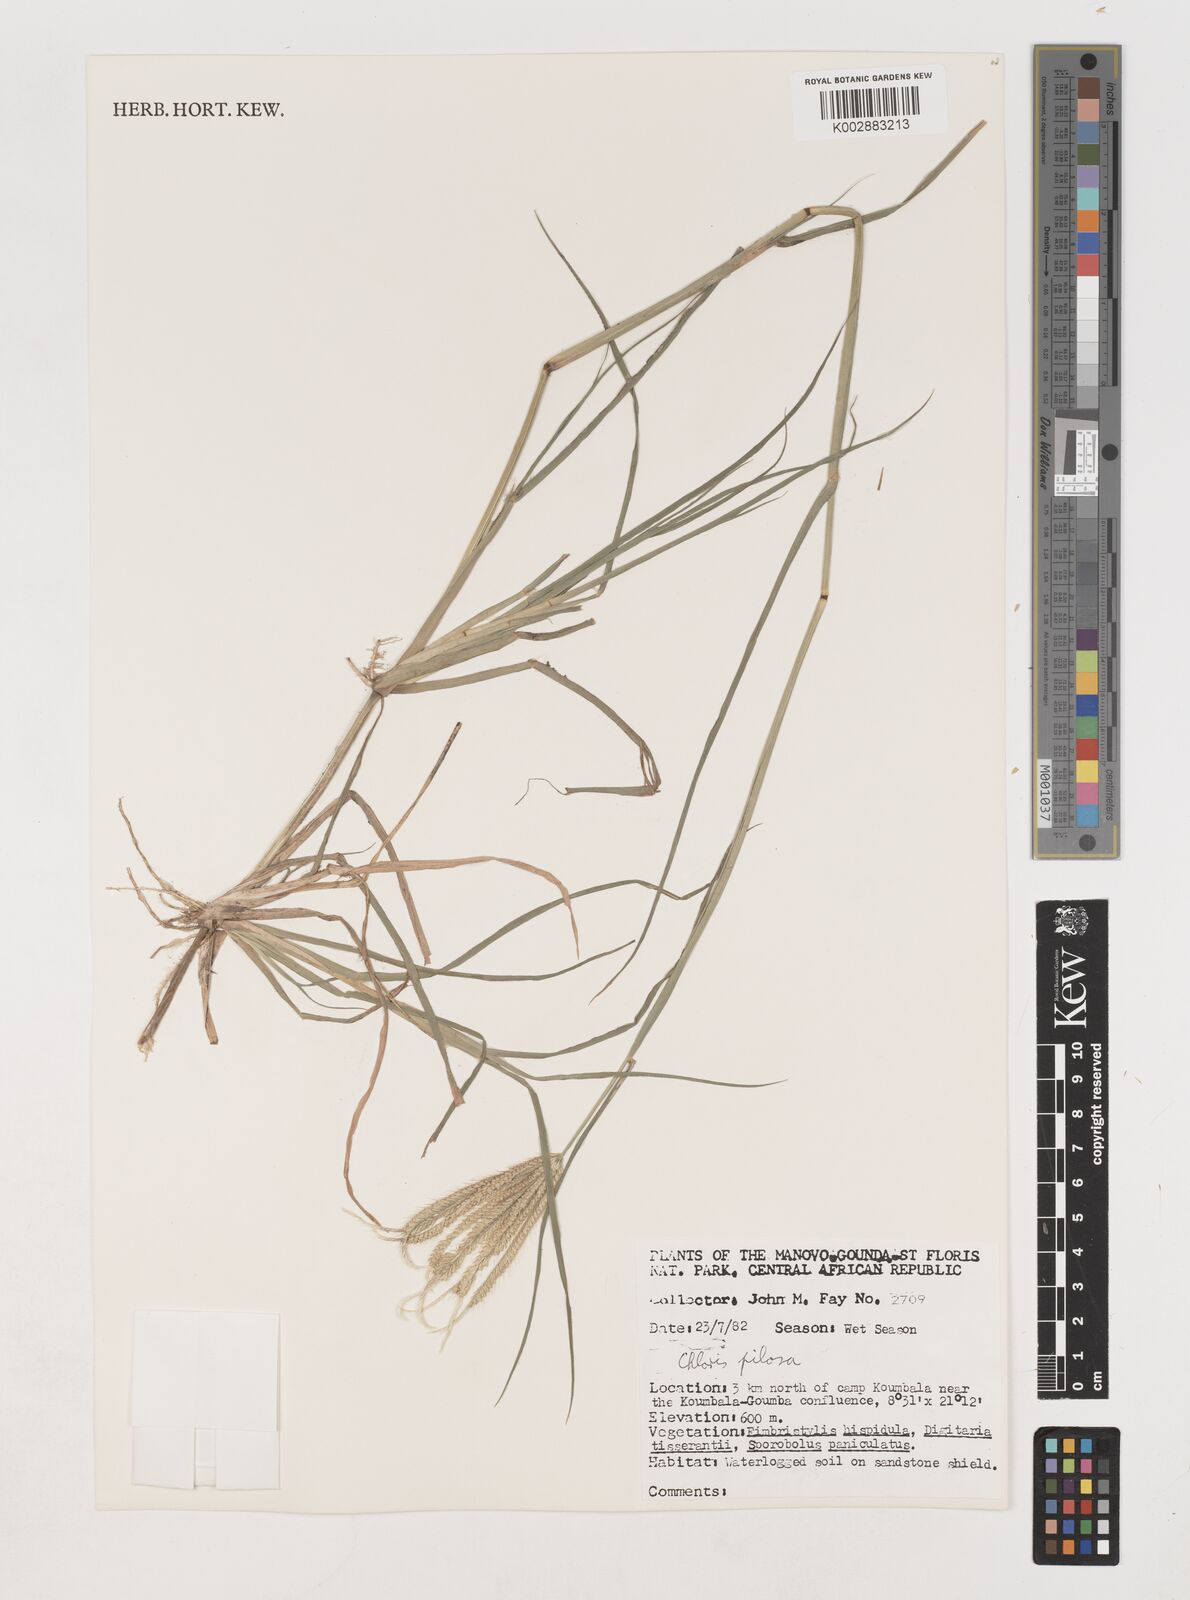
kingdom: Plantae
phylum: Tracheophyta
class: Liliopsida
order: Poales
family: Poaceae
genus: Chloris
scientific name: Chloris pilosa
